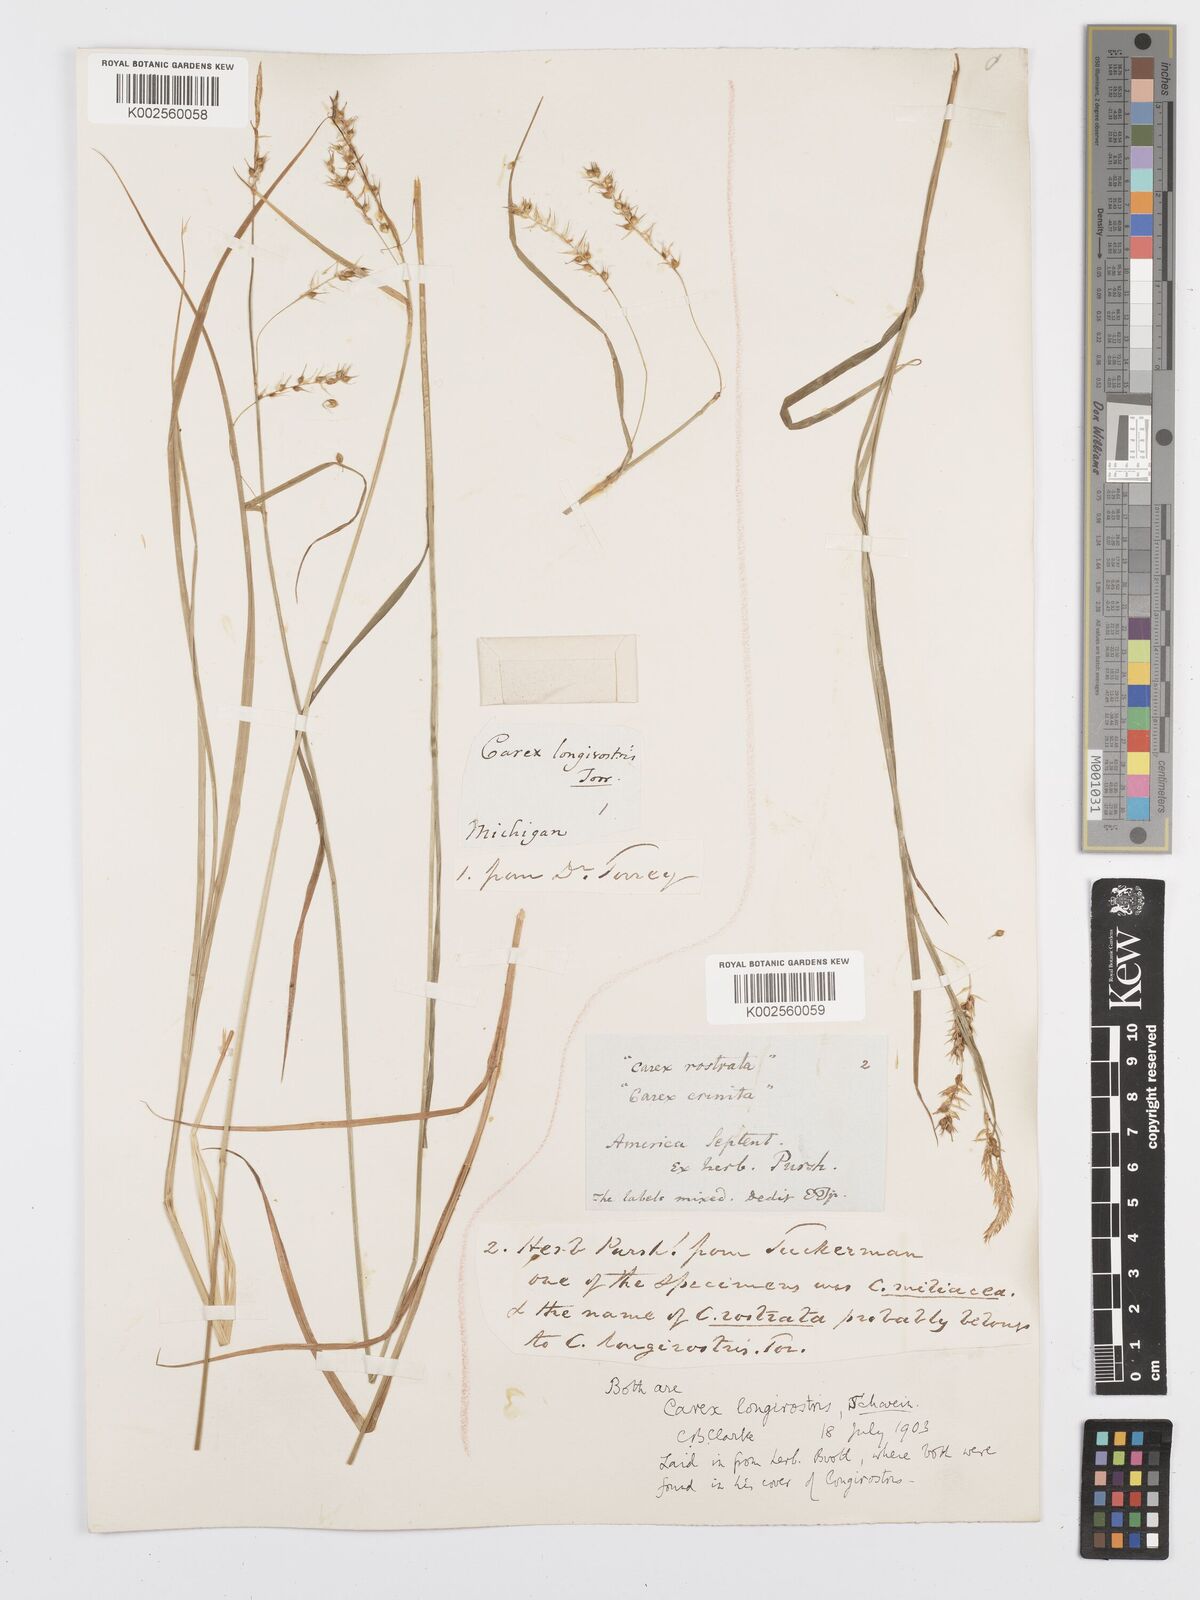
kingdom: Plantae
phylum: Tracheophyta
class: Liliopsida
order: Poales
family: Cyperaceae
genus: Carex
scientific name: Carex sprengelii
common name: Long-beaked sedge
